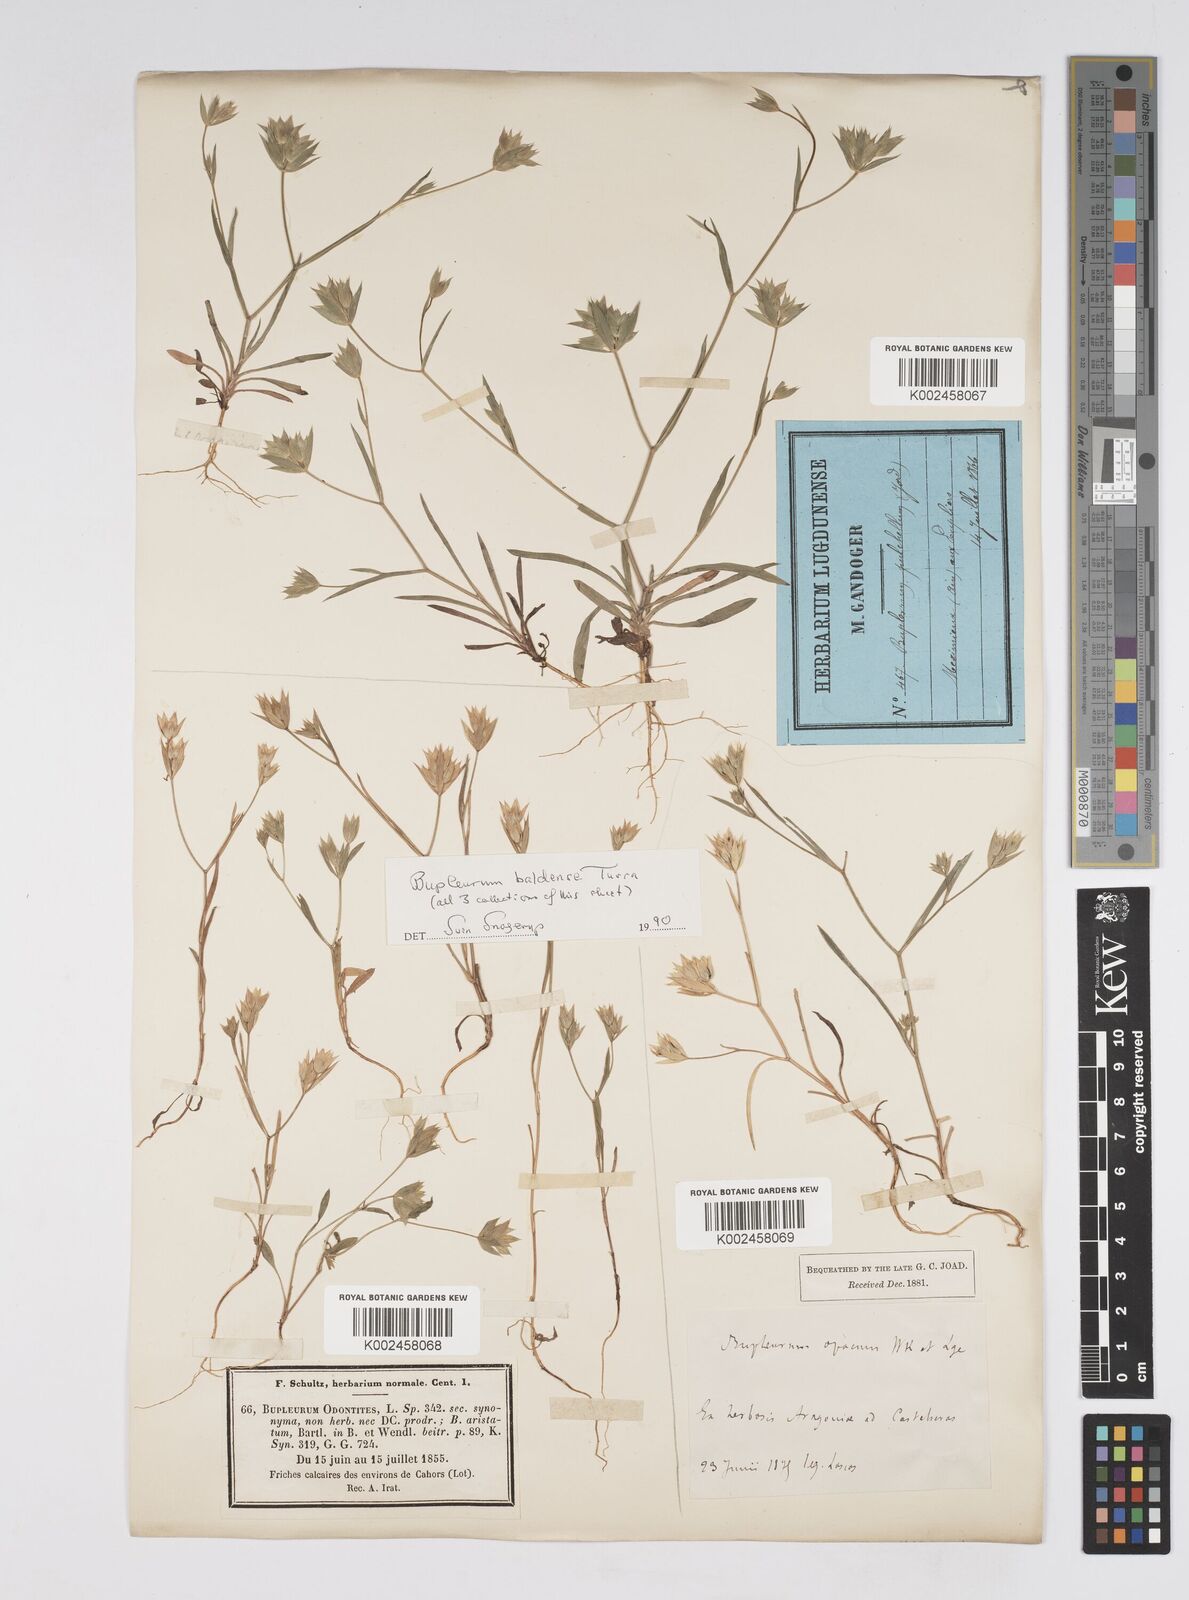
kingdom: Plantae
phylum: Tracheophyta
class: Magnoliopsida
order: Apiales
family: Apiaceae
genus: Bupleurum
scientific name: Bupleurum baldense
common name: Small hare's-ear
